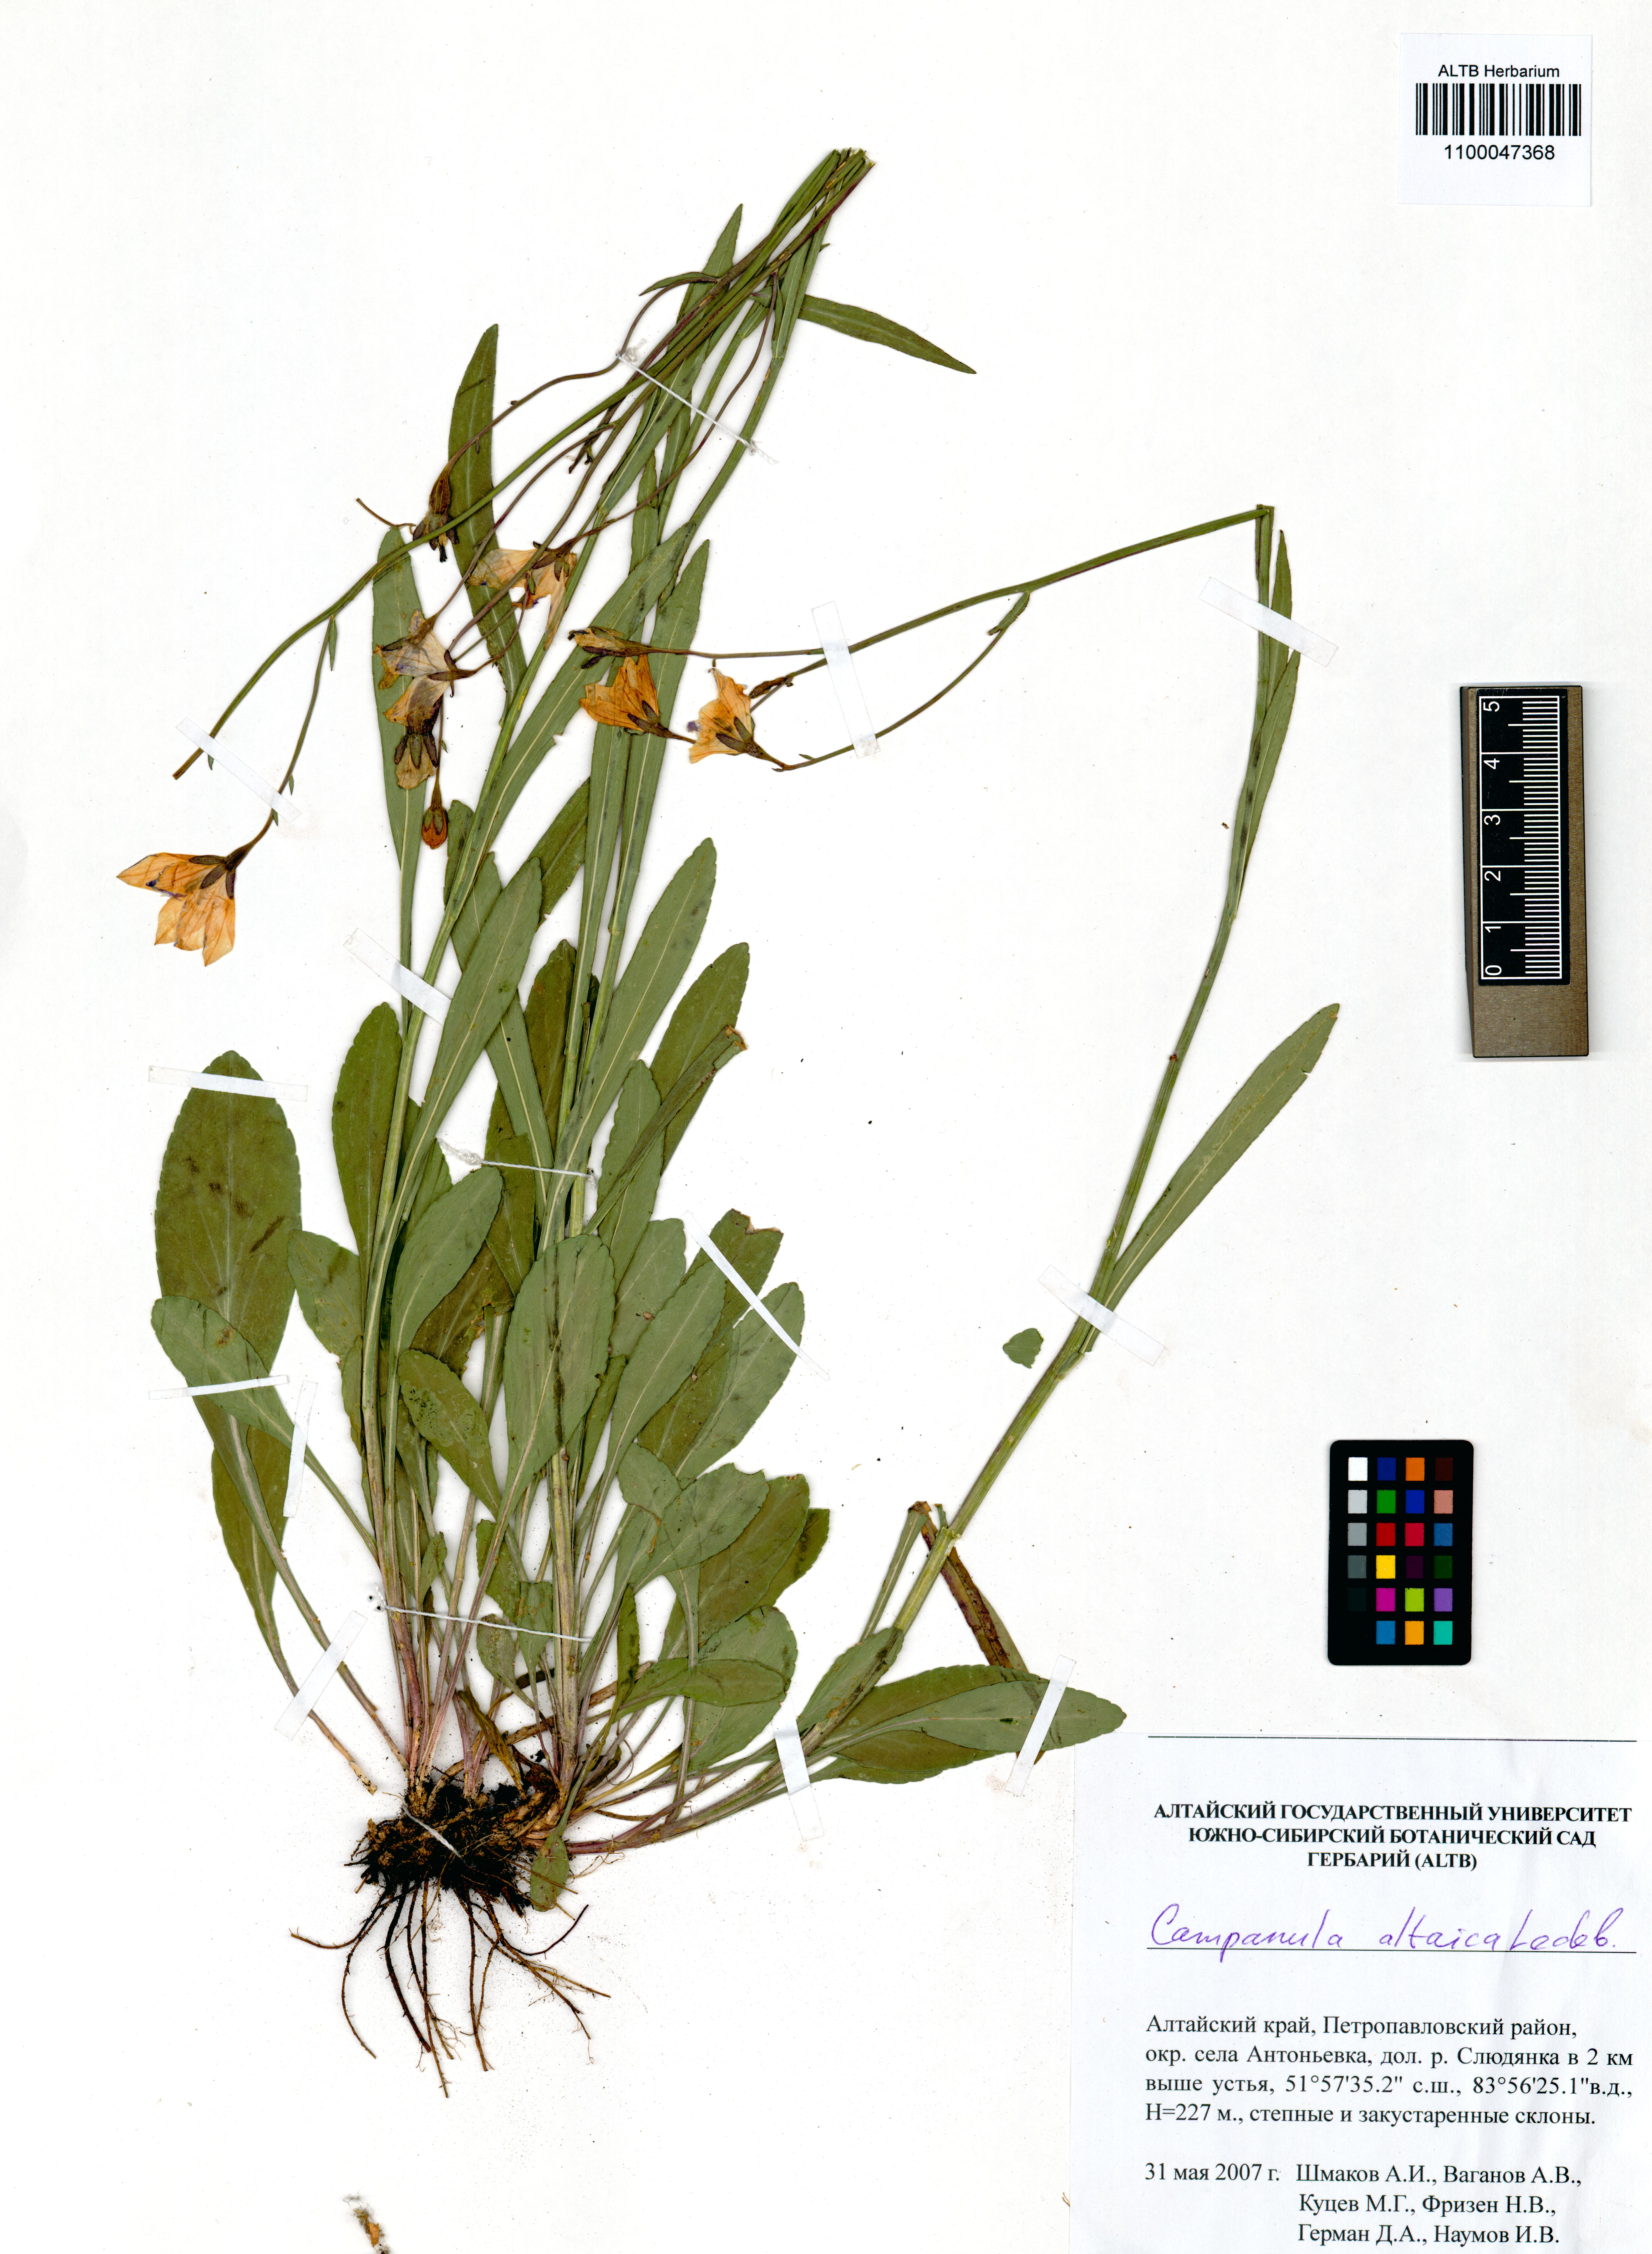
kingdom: Plantae
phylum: Tracheophyta
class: Magnoliopsida
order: Asterales
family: Campanulaceae
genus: Campanula
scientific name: Campanula stevenii
